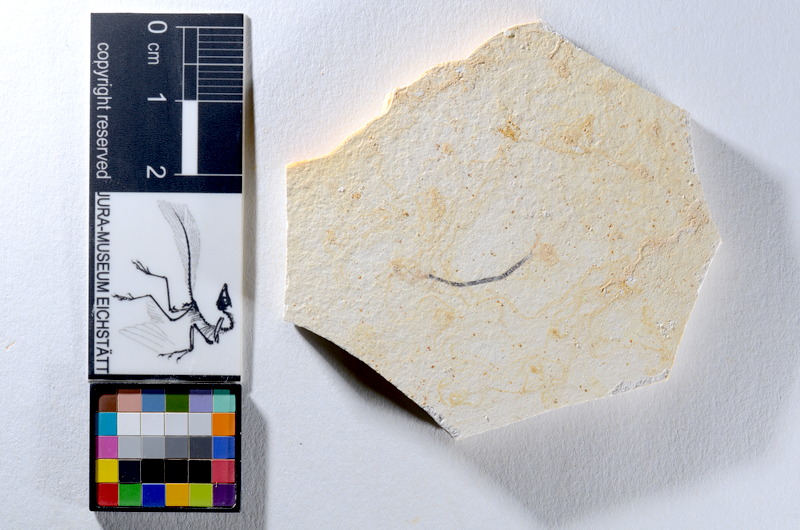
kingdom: Animalia
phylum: Chordata
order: Salmoniformes
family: Orthogonikleithridae
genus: Orthogonikleithrus
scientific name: Orthogonikleithrus hoelli
